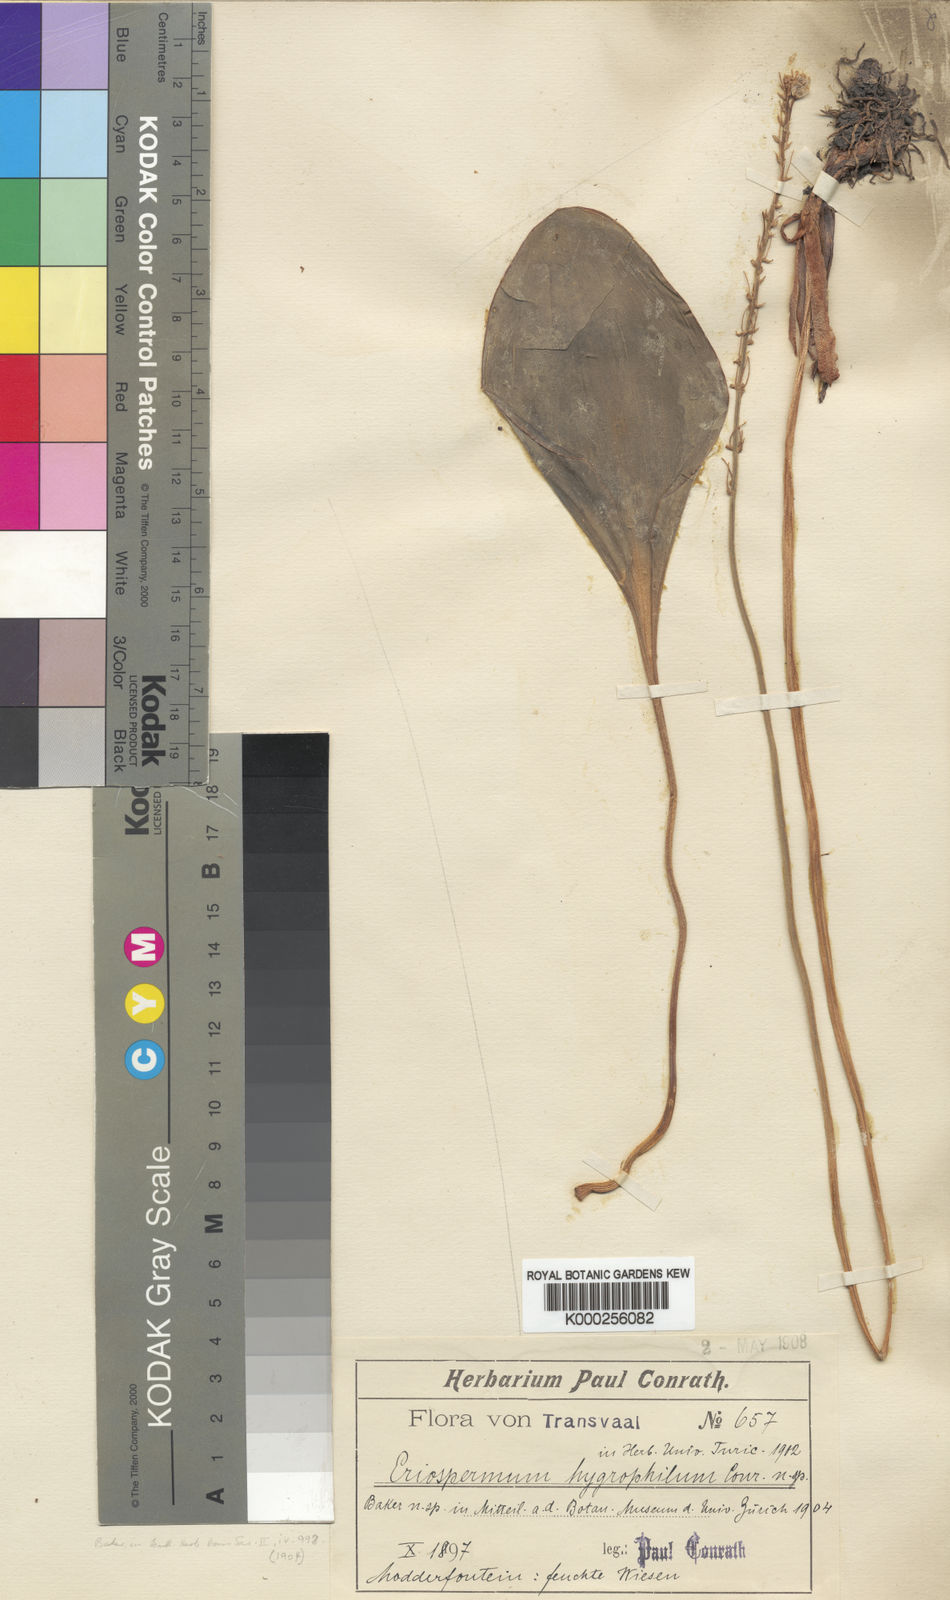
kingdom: Plantae
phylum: Tracheophyta
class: Liliopsida
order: Asparagales
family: Asparagaceae
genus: Eriospermum
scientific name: Eriospermum cooperi
